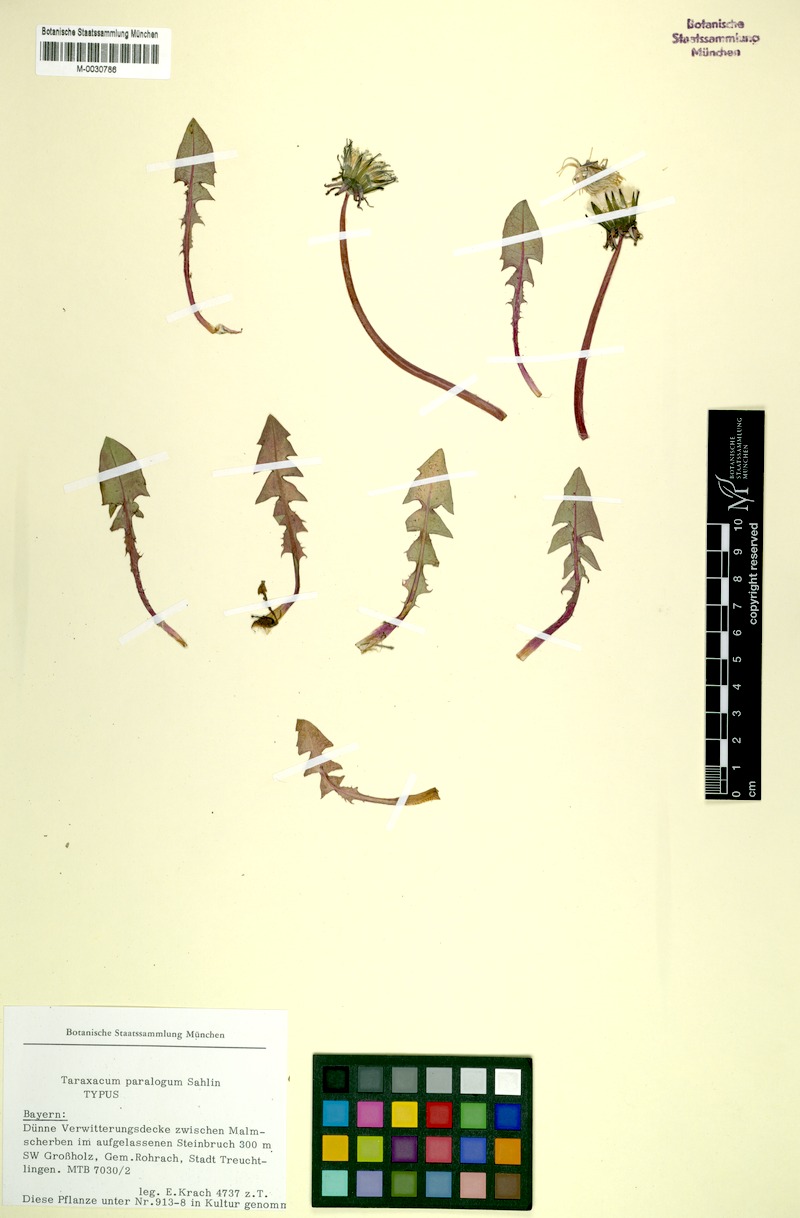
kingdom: Plantae
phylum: Tracheophyta
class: Magnoliopsida
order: Asterales
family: Asteraceae
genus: Taraxacum
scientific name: Taraxacum
